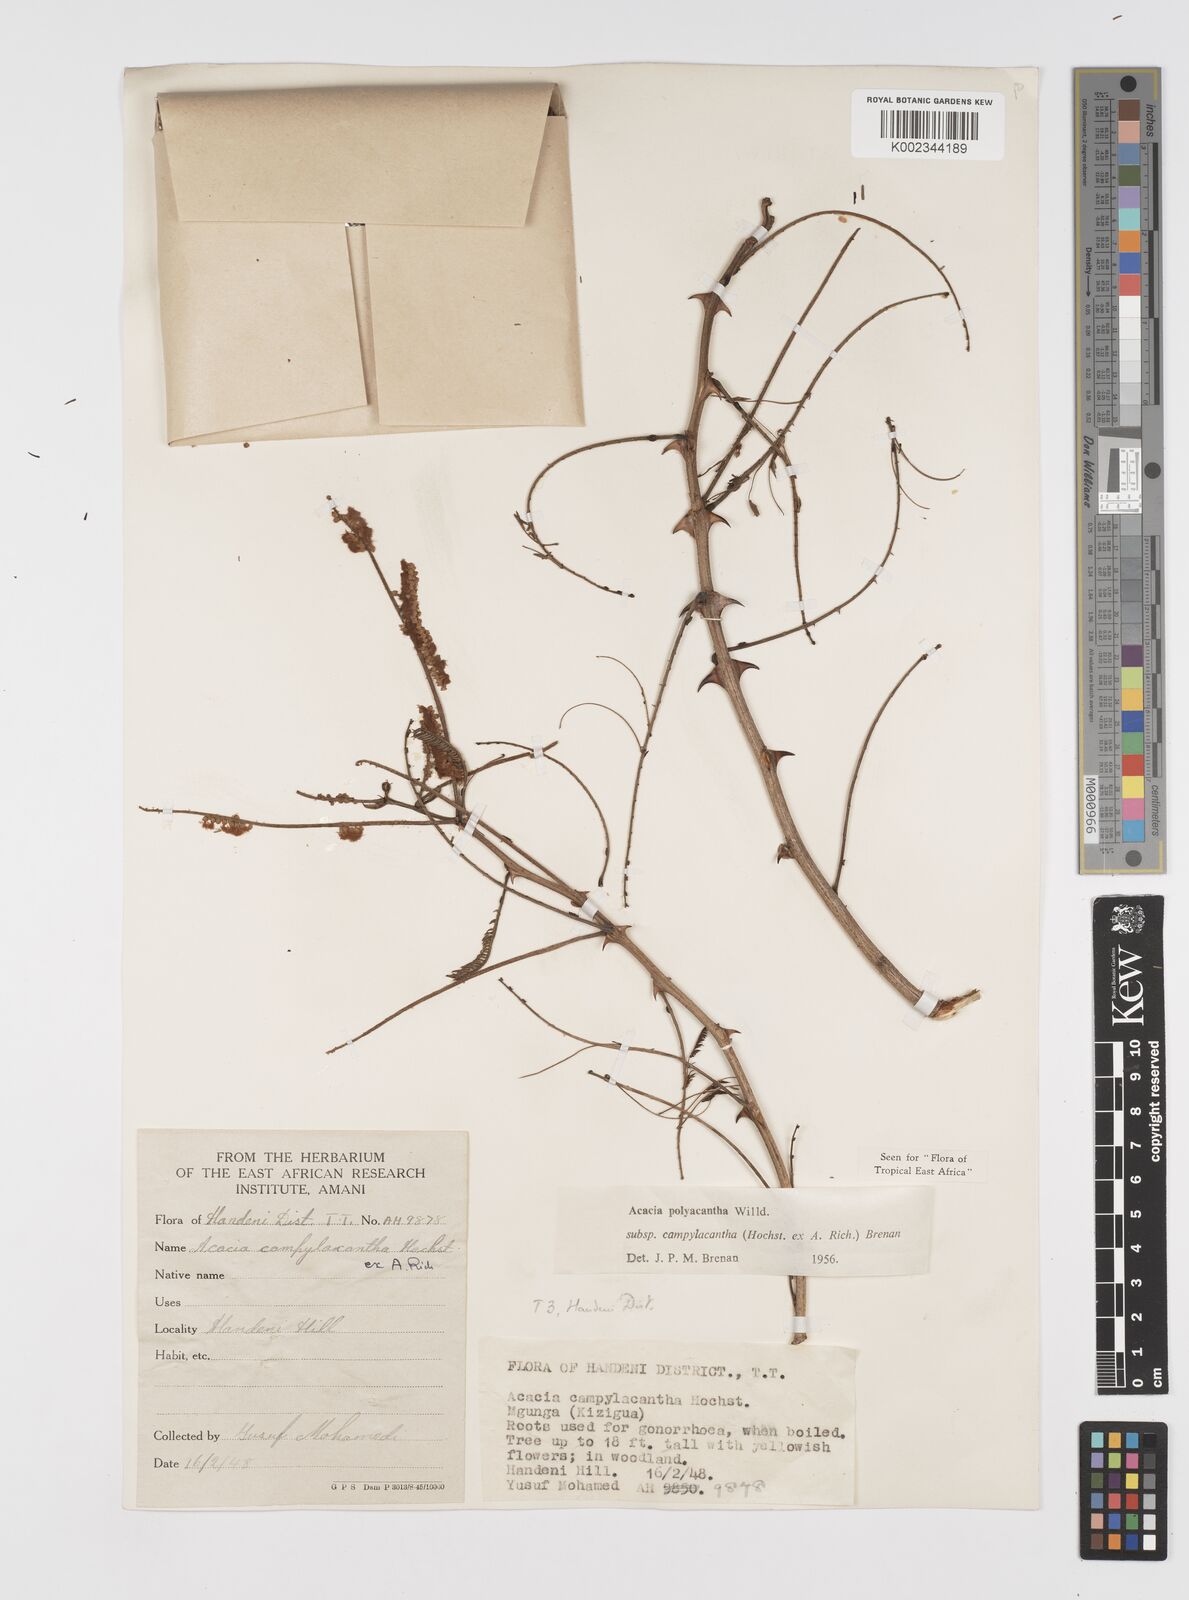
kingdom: Plantae
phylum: Tracheophyta
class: Magnoliopsida
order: Fabales
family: Fabaceae
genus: Senegalia
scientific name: Senegalia polyacantha
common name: Whitethorn
